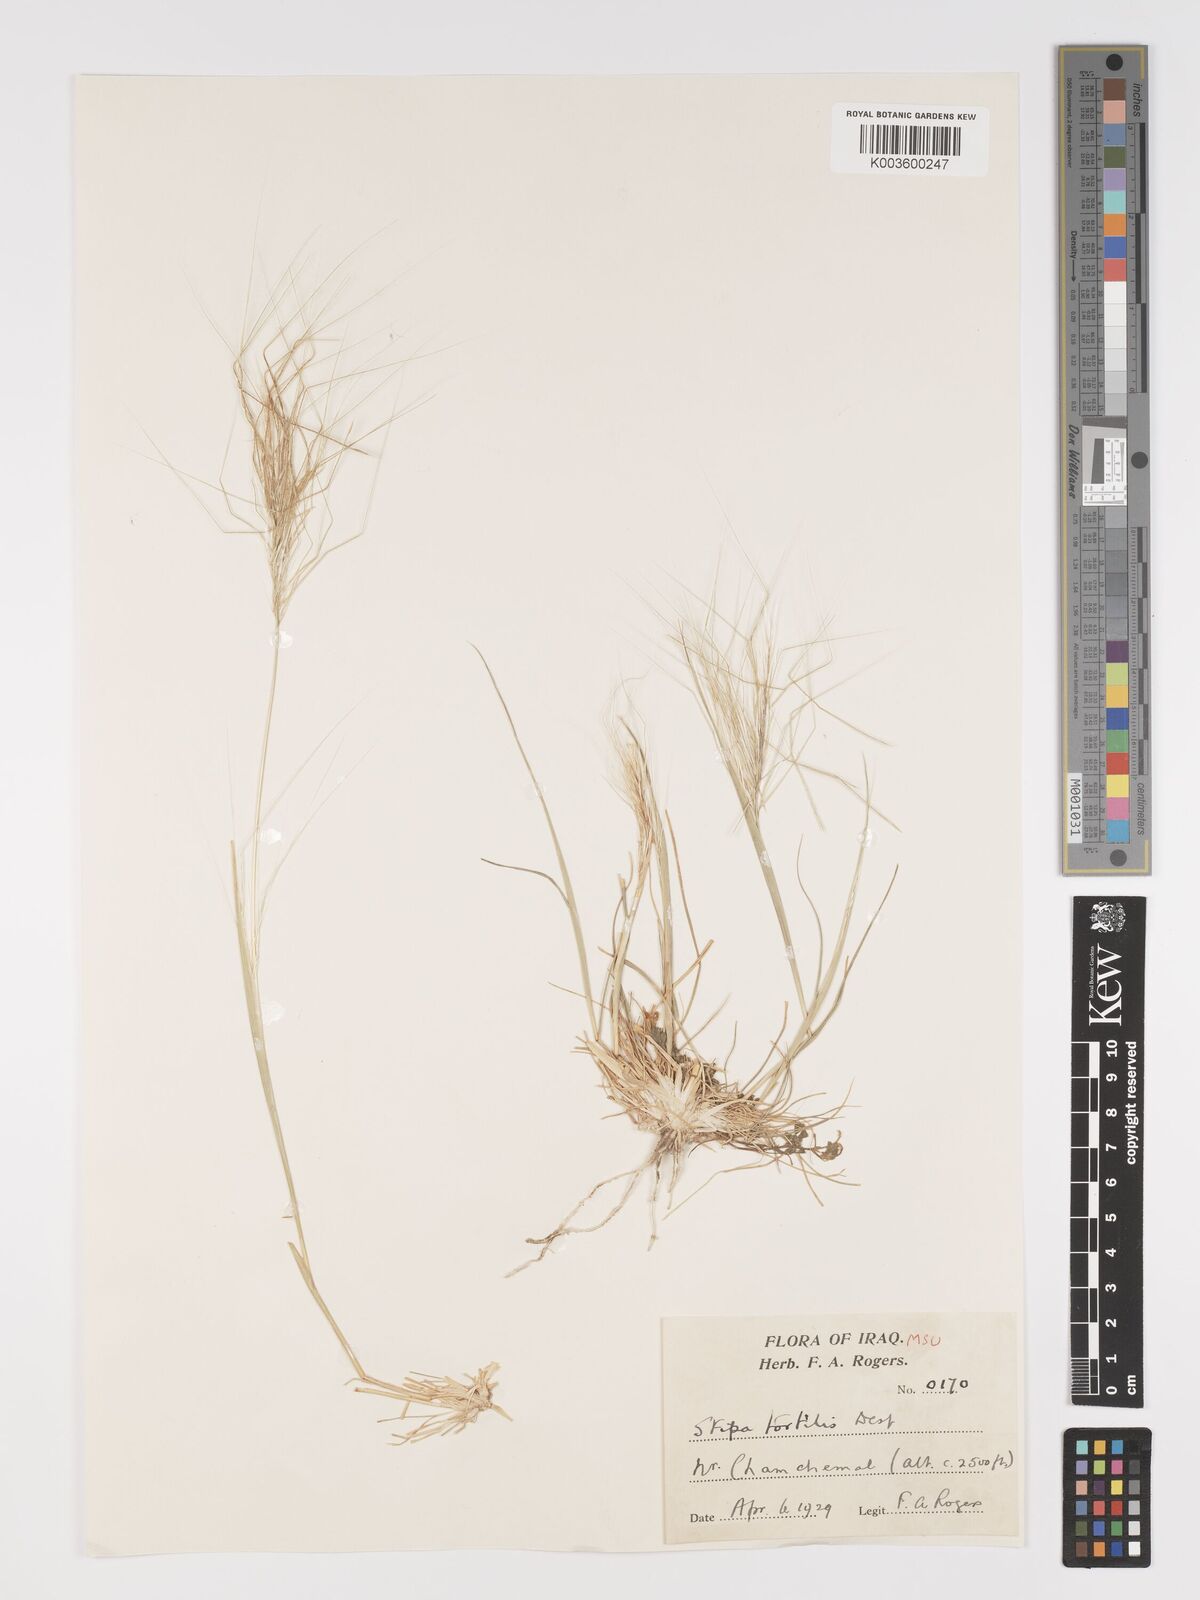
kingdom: Plantae
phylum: Tracheophyta
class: Liliopsida
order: Poales
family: Poaceae
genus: Stipellula
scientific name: Stipellula capensis
